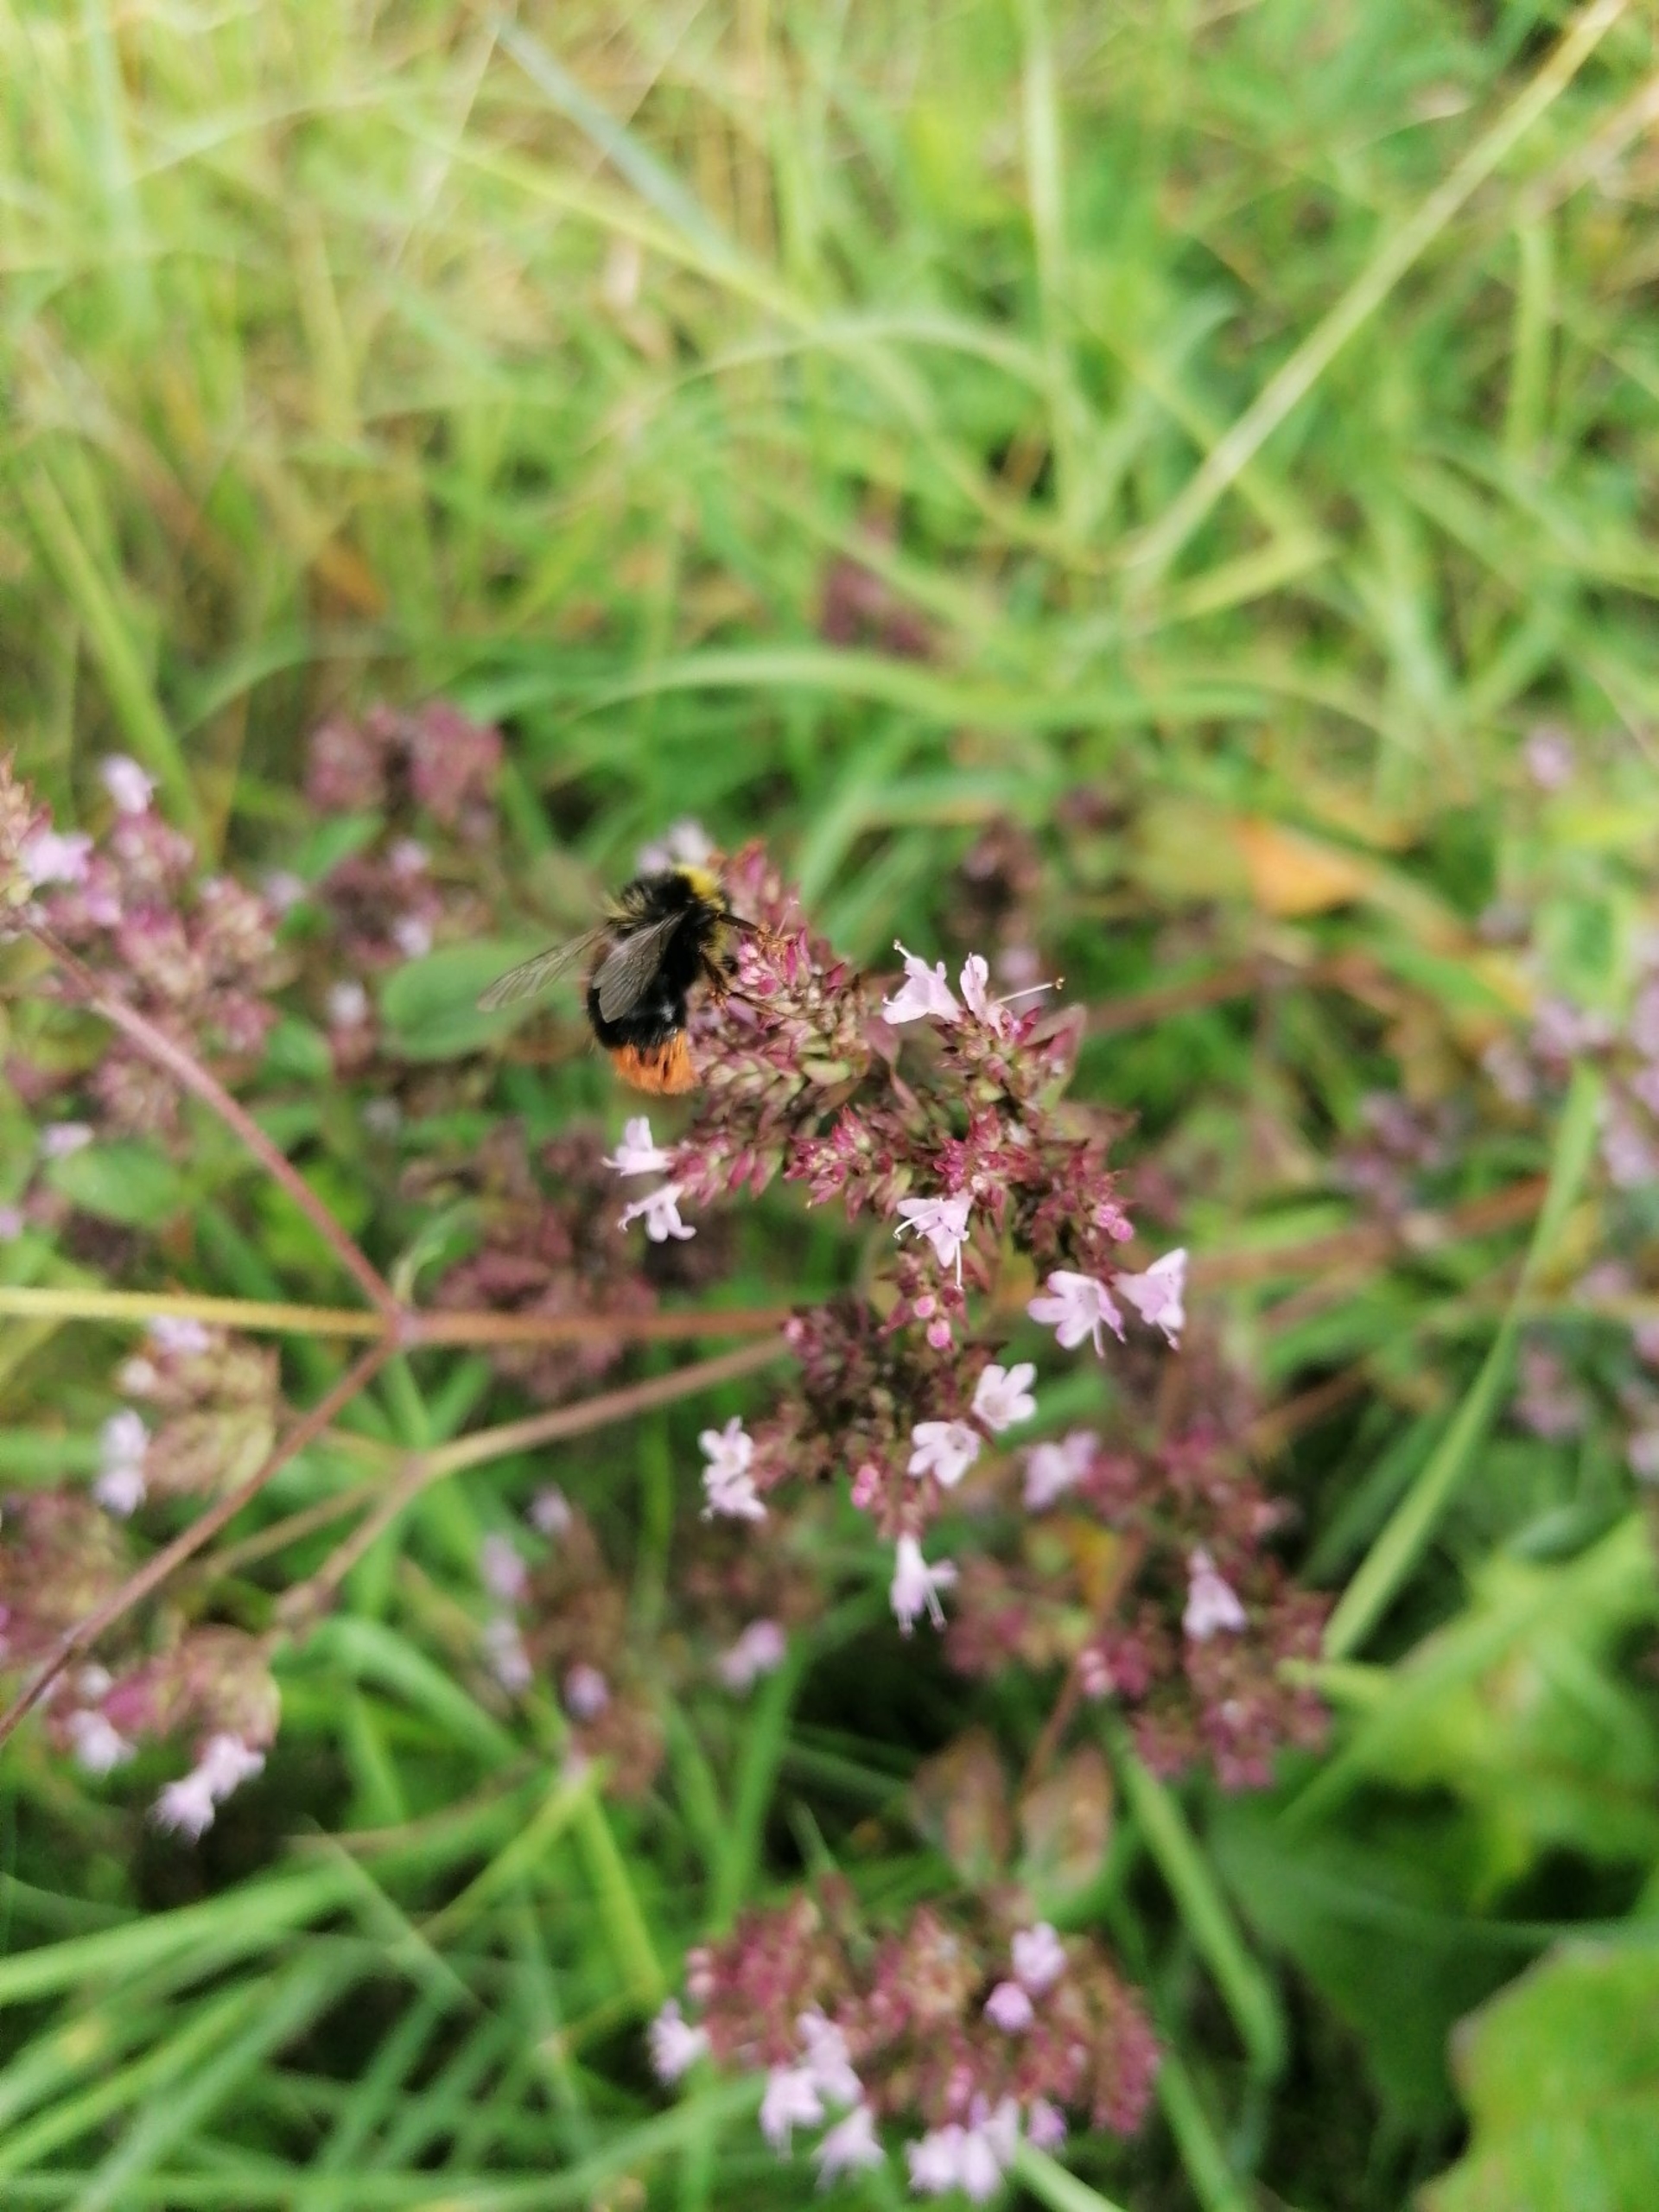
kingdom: Animalia
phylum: Arthropoda
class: Insecta
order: Hymenoptera
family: Apidae
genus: Bombus
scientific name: Bombus pratorum
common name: Lille skovhumle
